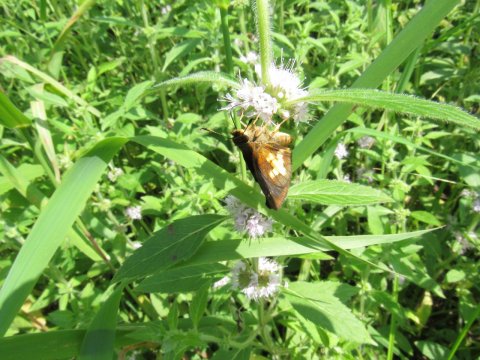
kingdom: Animalia
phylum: Arthropoda
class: Insecta
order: Lepidoptera
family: Hesperiidae
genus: Poanes
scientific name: Poanes massasoit
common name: Mulberry Wing
